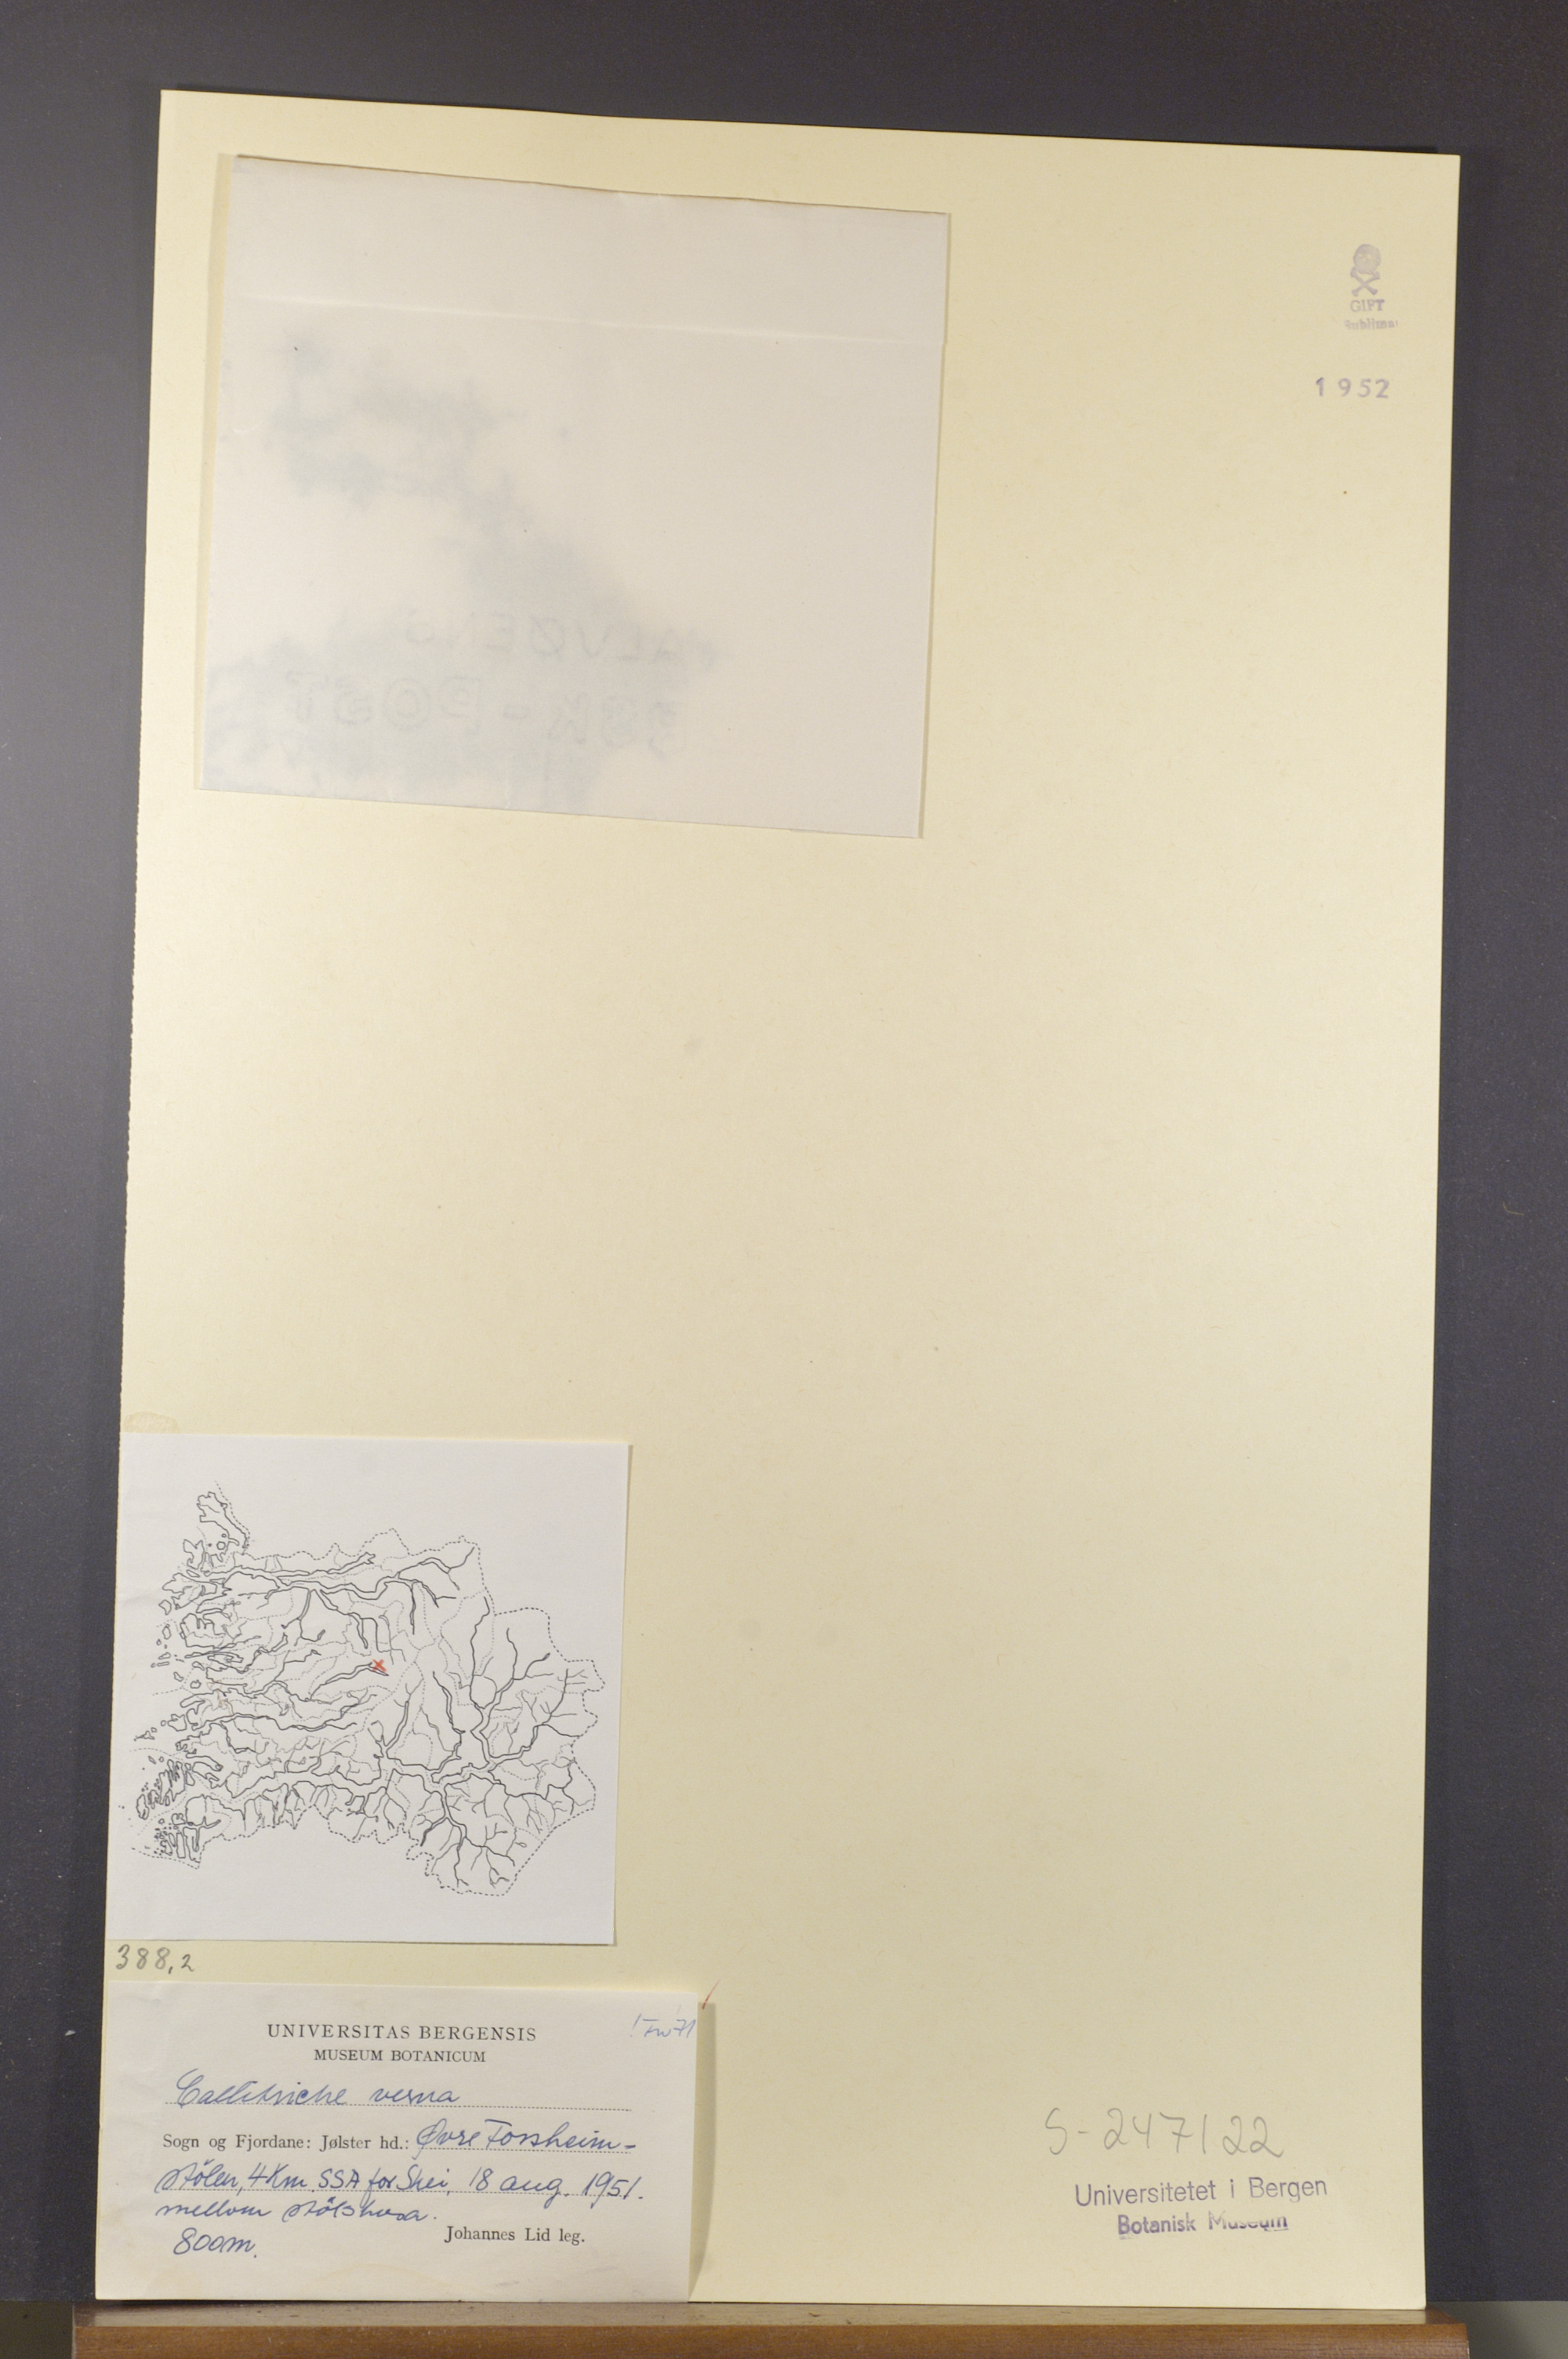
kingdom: Plantae
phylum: Tracheophyta
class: Magnoliopsida
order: Lamiales
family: Plantaginaceae
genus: Callitriche
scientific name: Callitriche palustris
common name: Spring water-starwort
